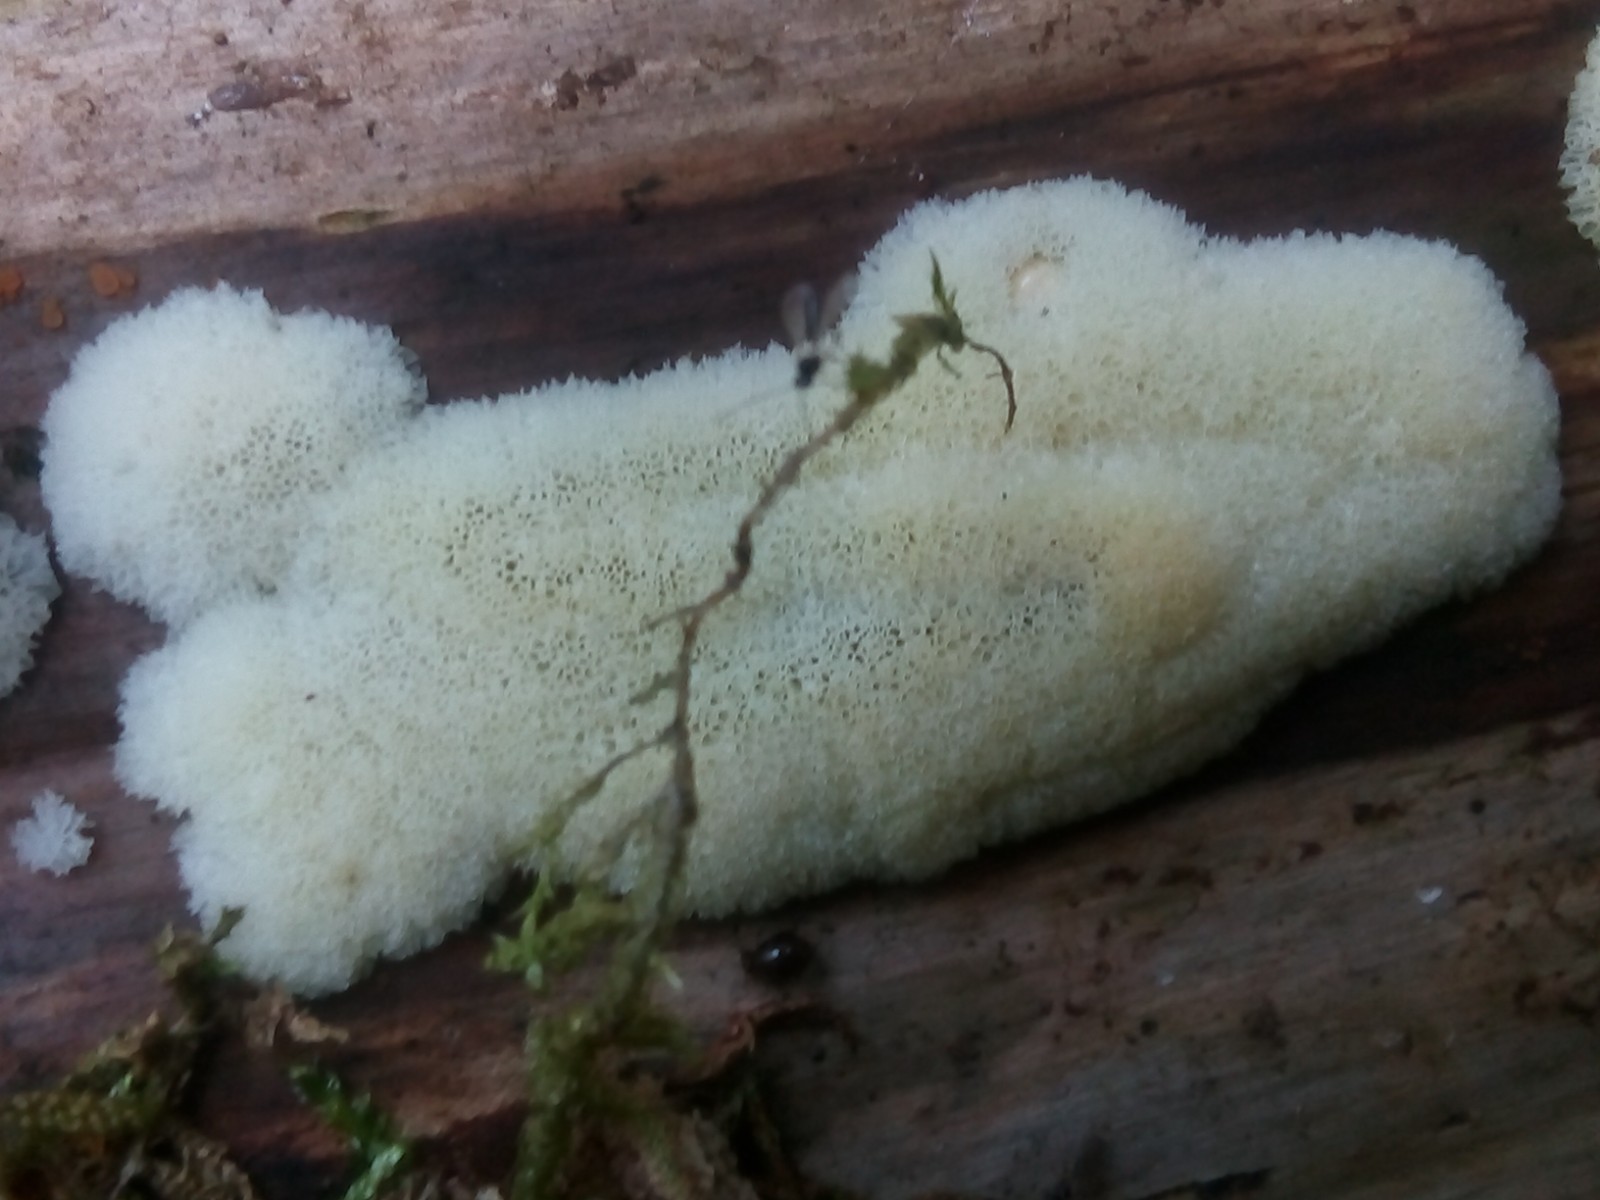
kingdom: Protozoa
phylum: Mycetozoa
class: Protosteliomycetes
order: Ceratiomyxales
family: Ceratiomyxaceae
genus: Ceratiomyxa
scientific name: Ceratiomyxa fruticulosa
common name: Honeycomb coral slime mold
